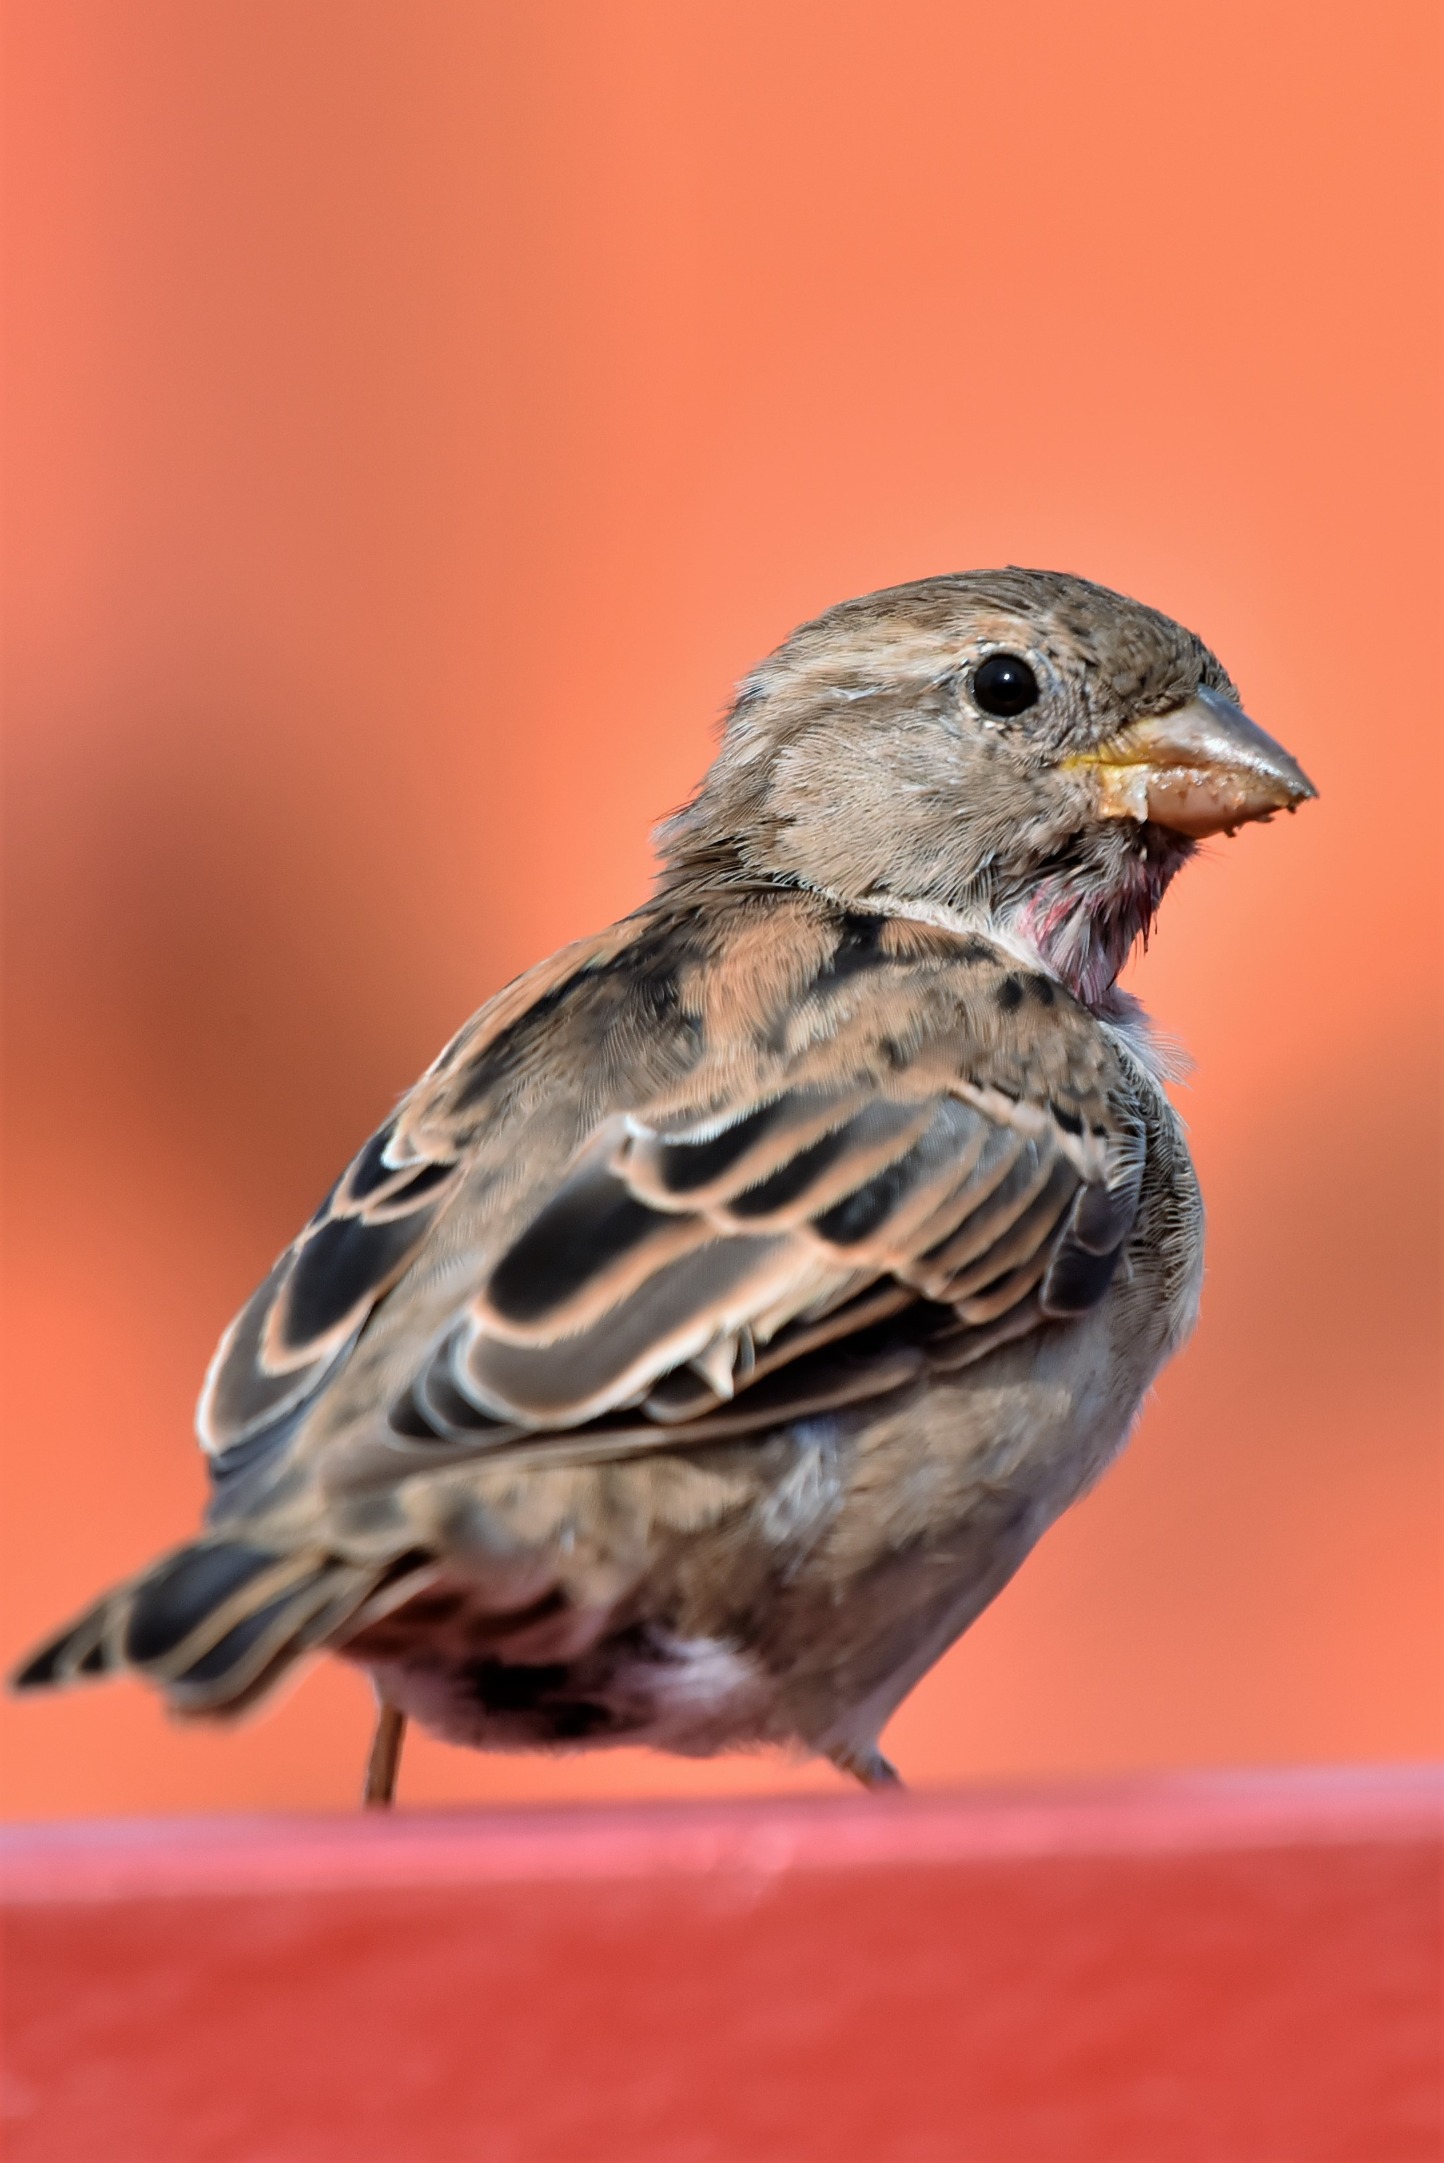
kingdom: Animalia
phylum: Chordata
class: Aves
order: Passeriformes
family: Passeridae
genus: Passer
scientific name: Passer domesticus
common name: Gråspurv
